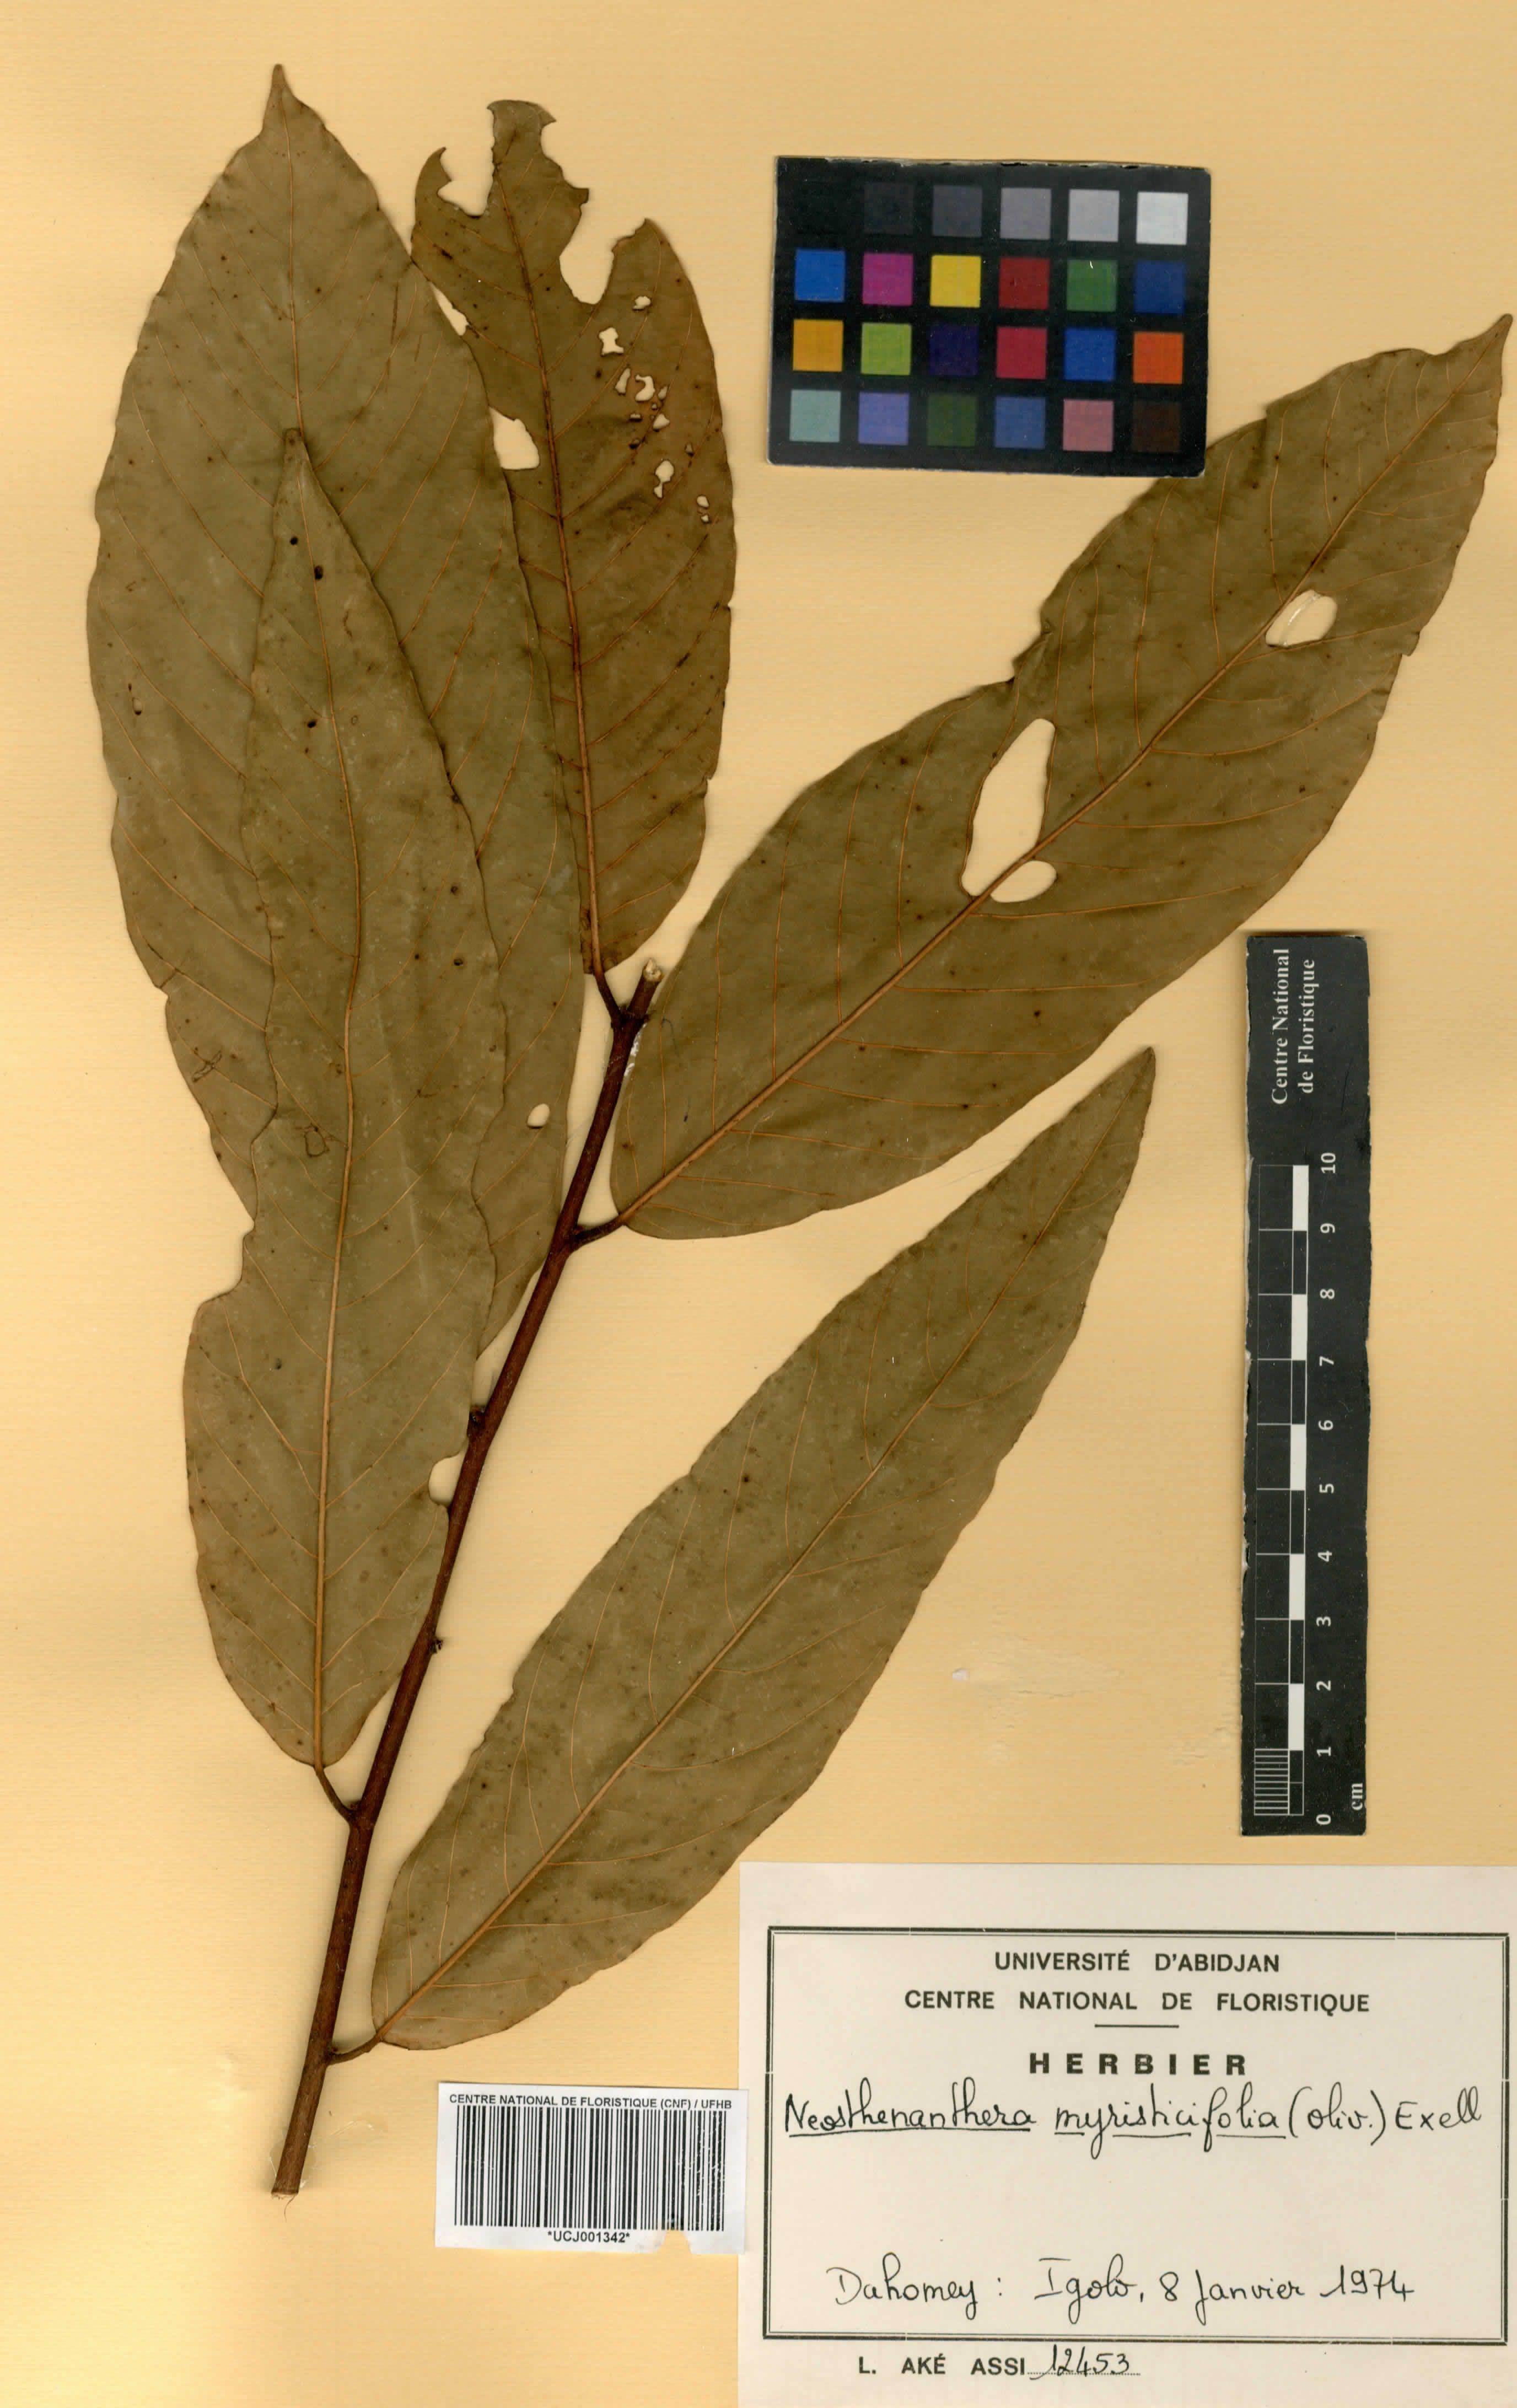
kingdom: Plantae
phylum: Tracheophyta
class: Magnoliopsida
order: Magnoliales
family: Annonaceae
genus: Neostenanthera
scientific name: Neostenanthera myristicifolia
